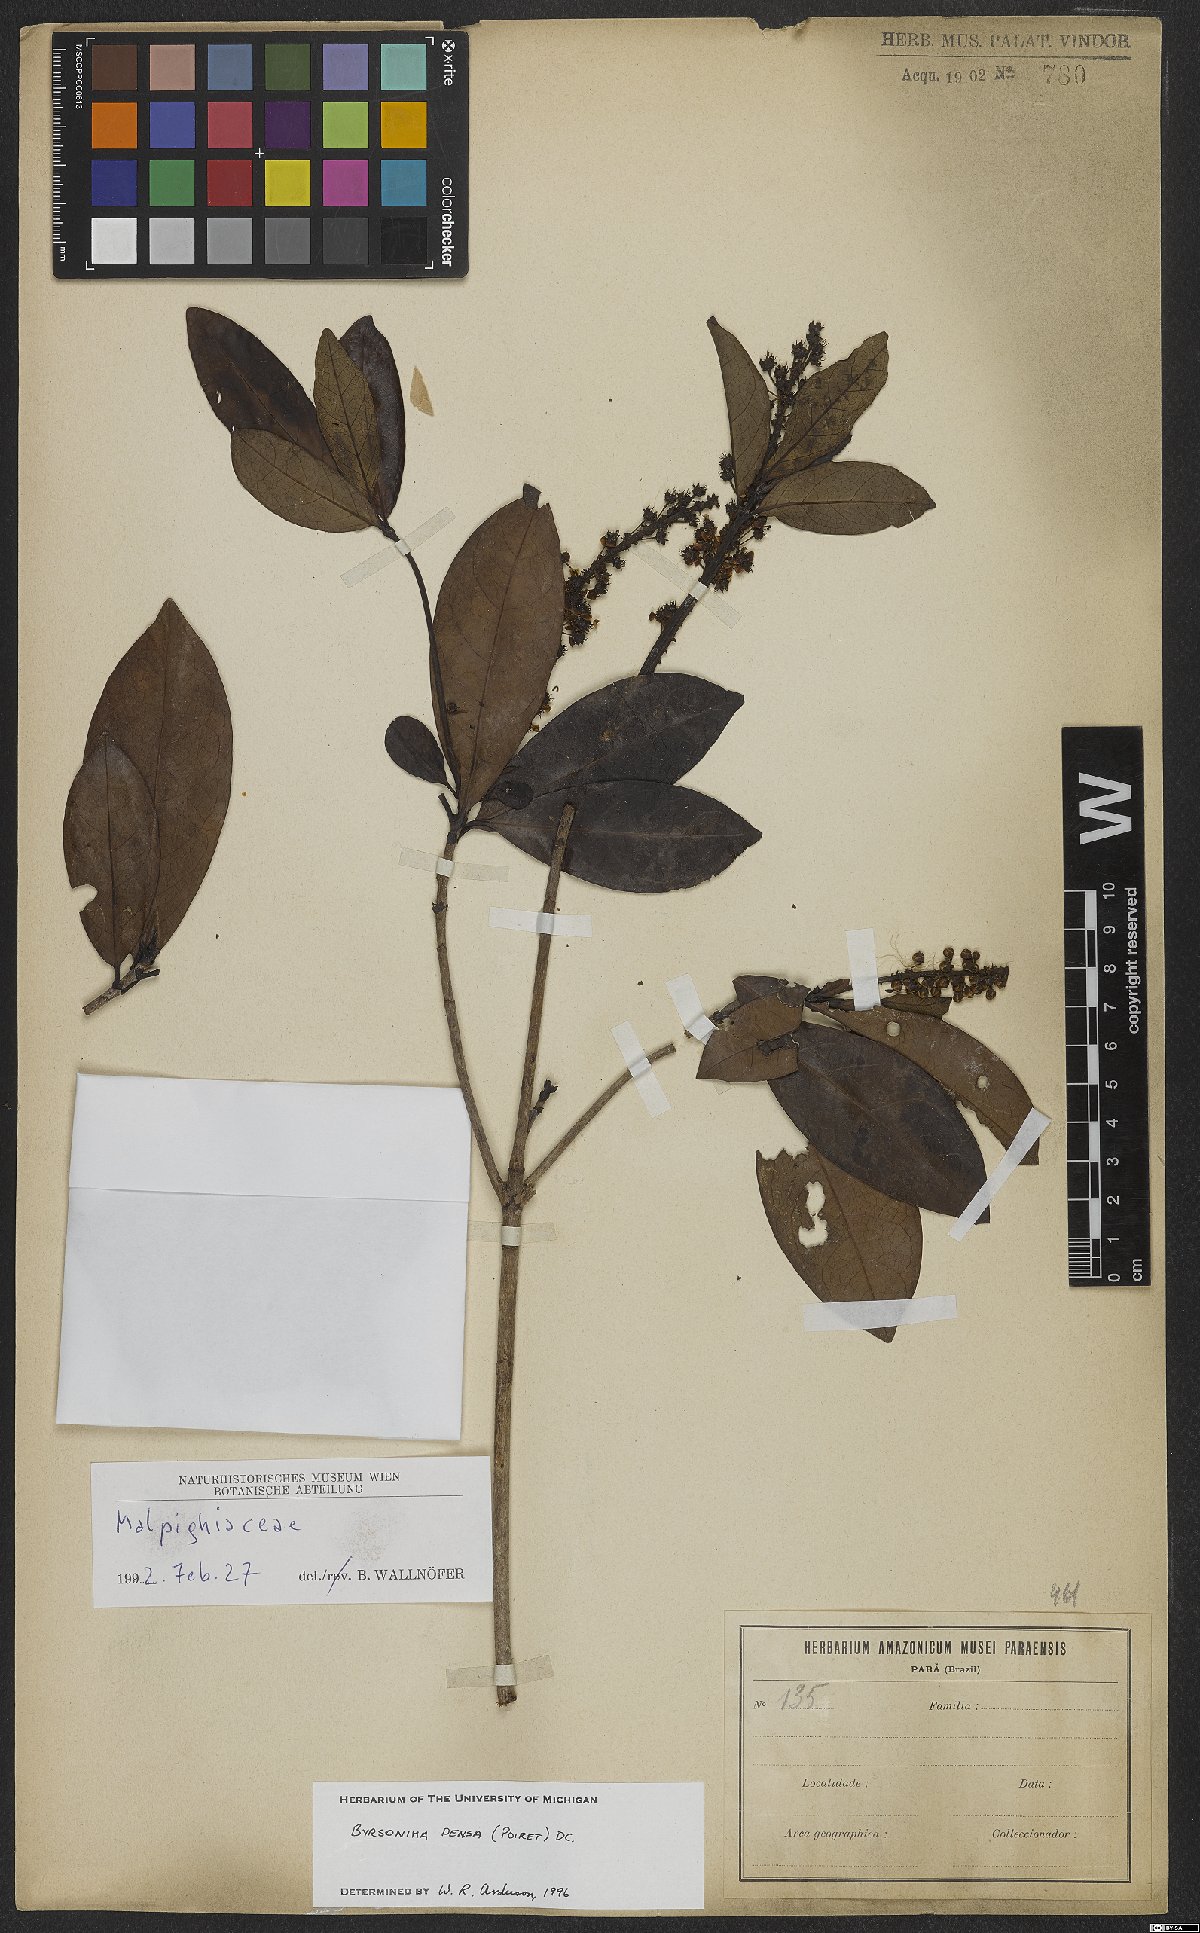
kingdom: Plantae
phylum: Tracheophyta
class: Magnoliopsida
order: Malpighiales
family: Malpighiaceae
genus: Byrsonima
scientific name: Byrsonima densa
